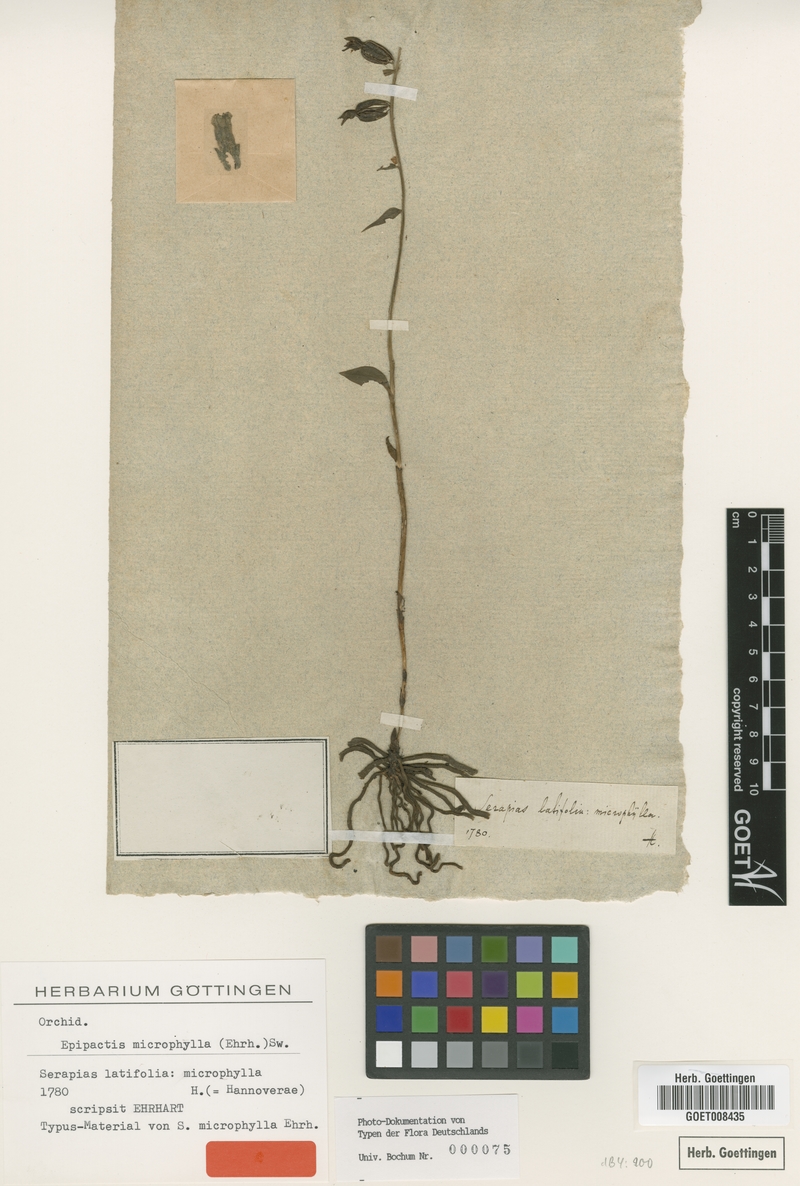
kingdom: Plantae
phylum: Tracheophyta
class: Liliopsida
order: Asparagales
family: Orchidaceae
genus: Epipactis
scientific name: Epipactis microphylla
